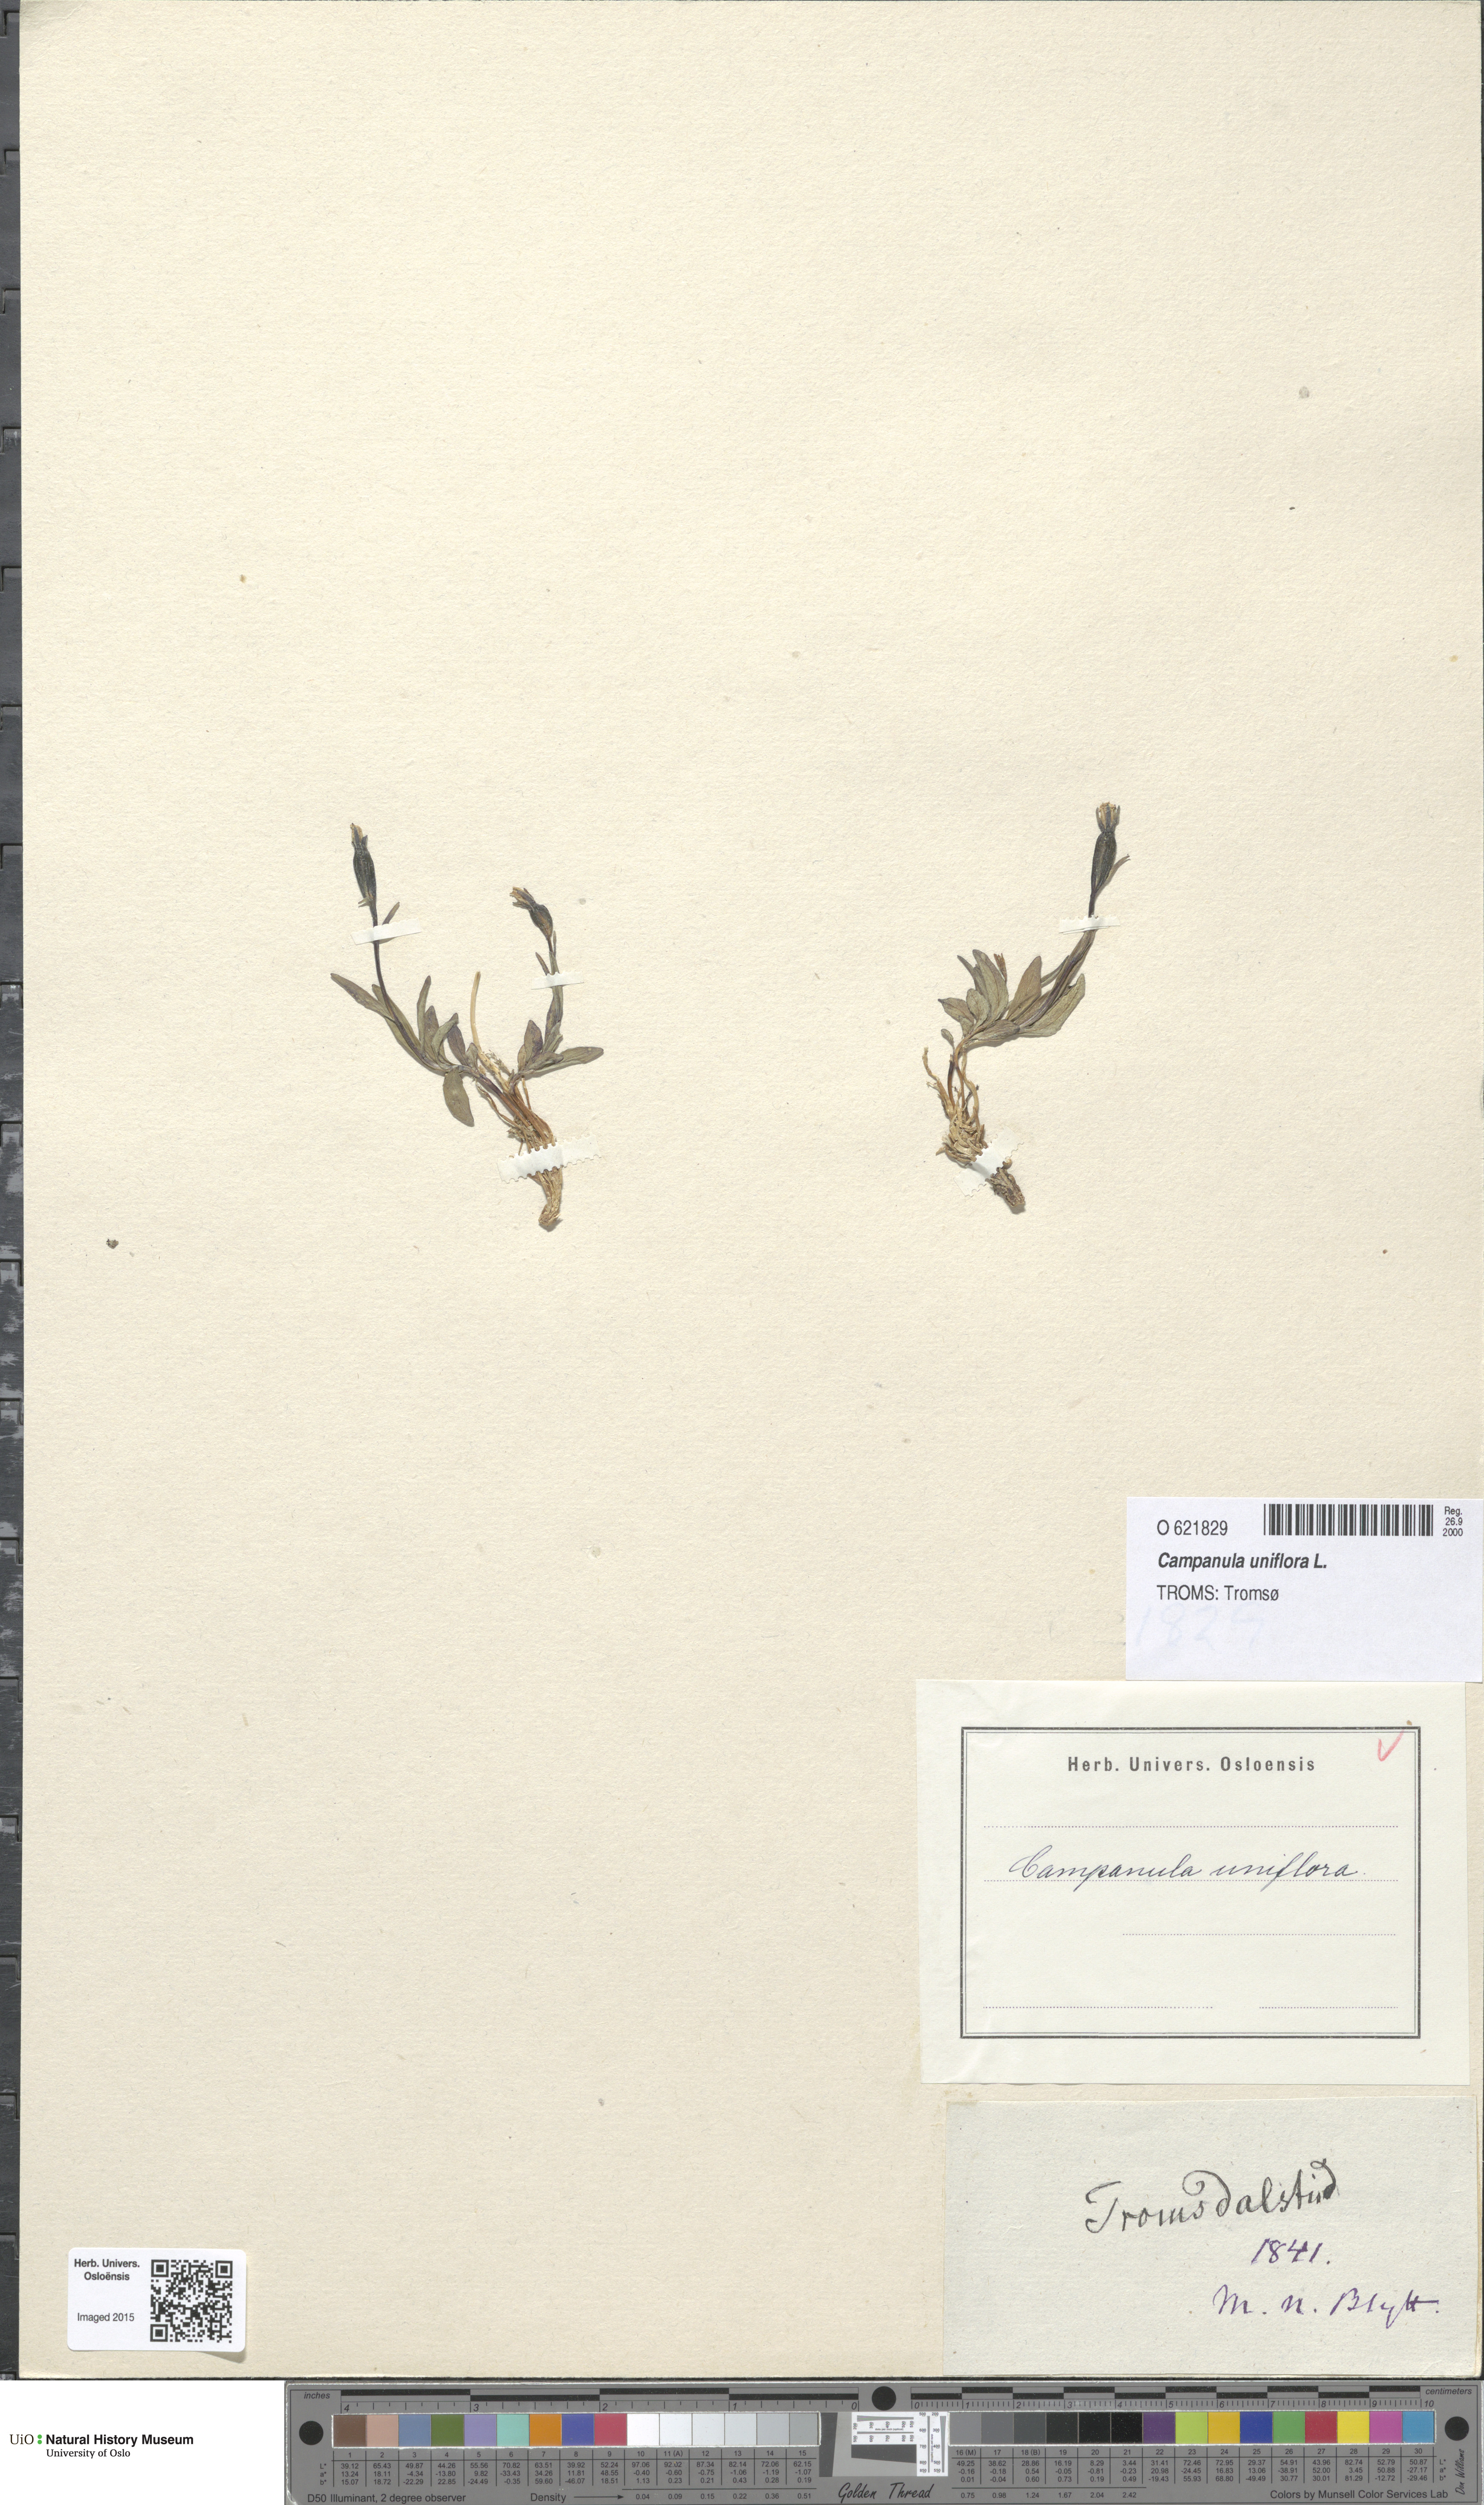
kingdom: Plantae
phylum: Tracheophyta
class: Magnoliopsida
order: Asterales
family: Campanulaceae
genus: Melanocalyx
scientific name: Melanocalyx uniflora
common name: Alpine harebell
